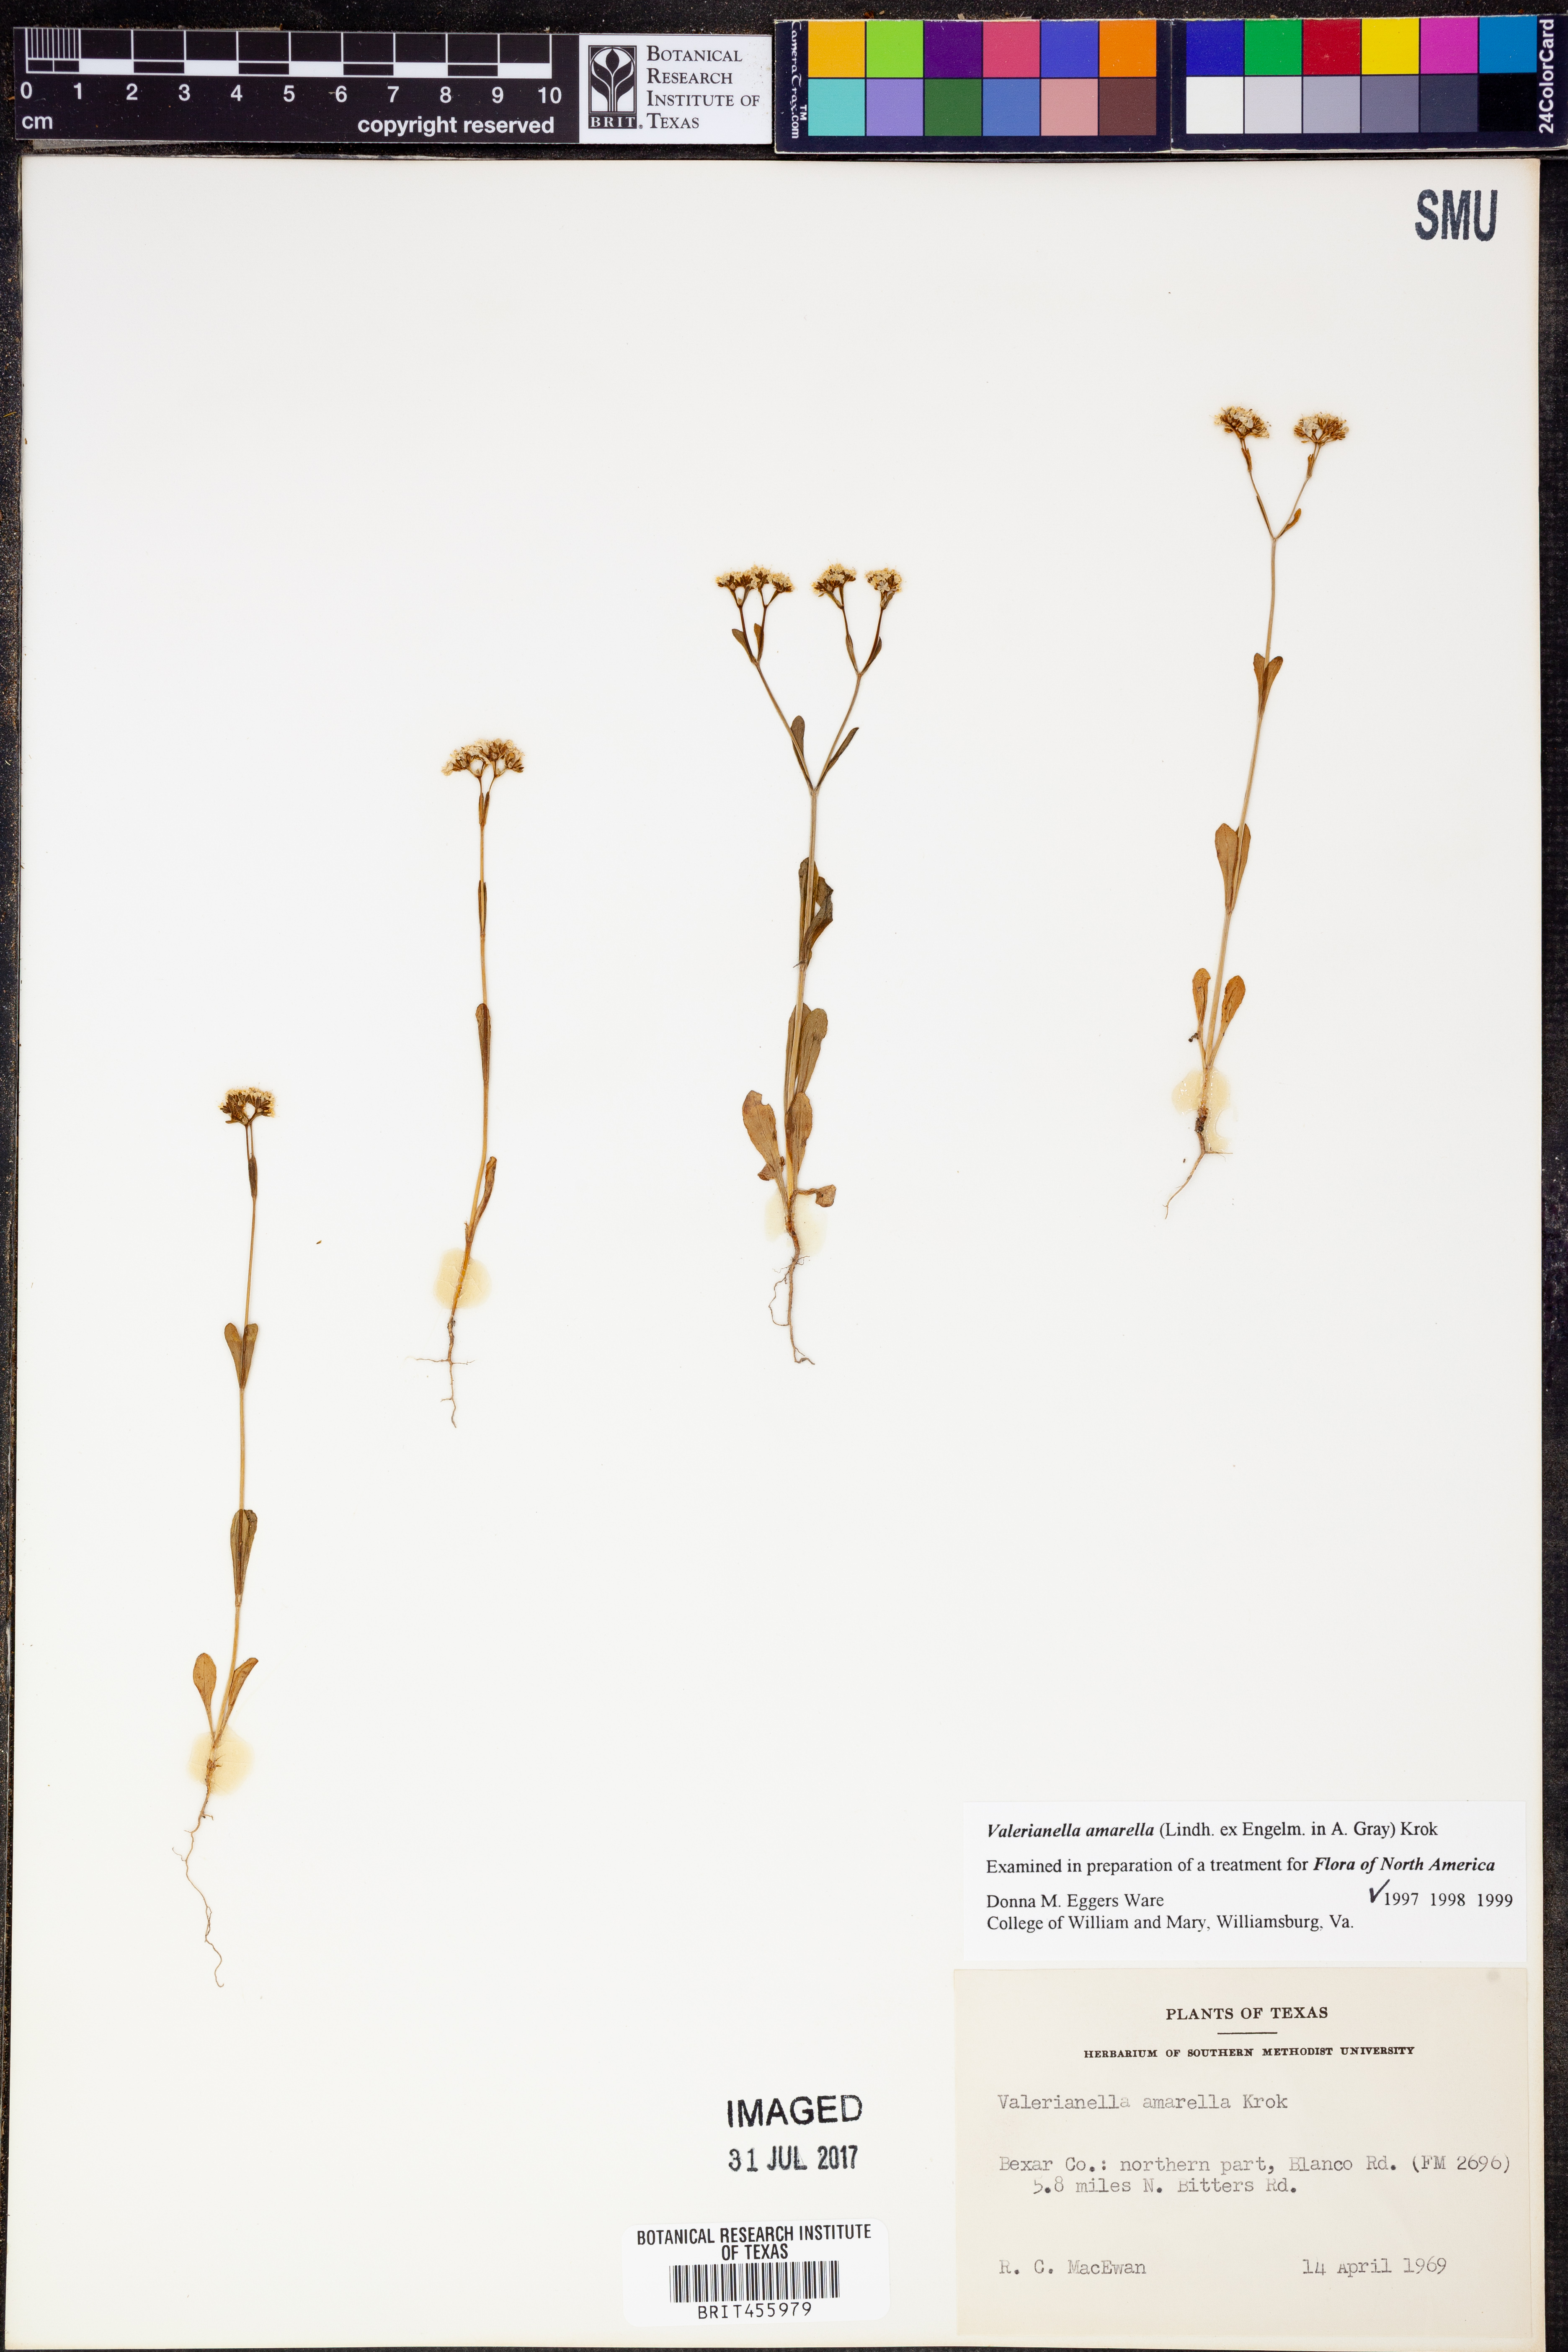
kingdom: Plantae
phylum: Tracheophyta
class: Magnoliopsida
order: Dipsacales
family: Caprifoliaceae
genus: Valerianella
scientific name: Valerianella amarella
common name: Hariy cornsalad
